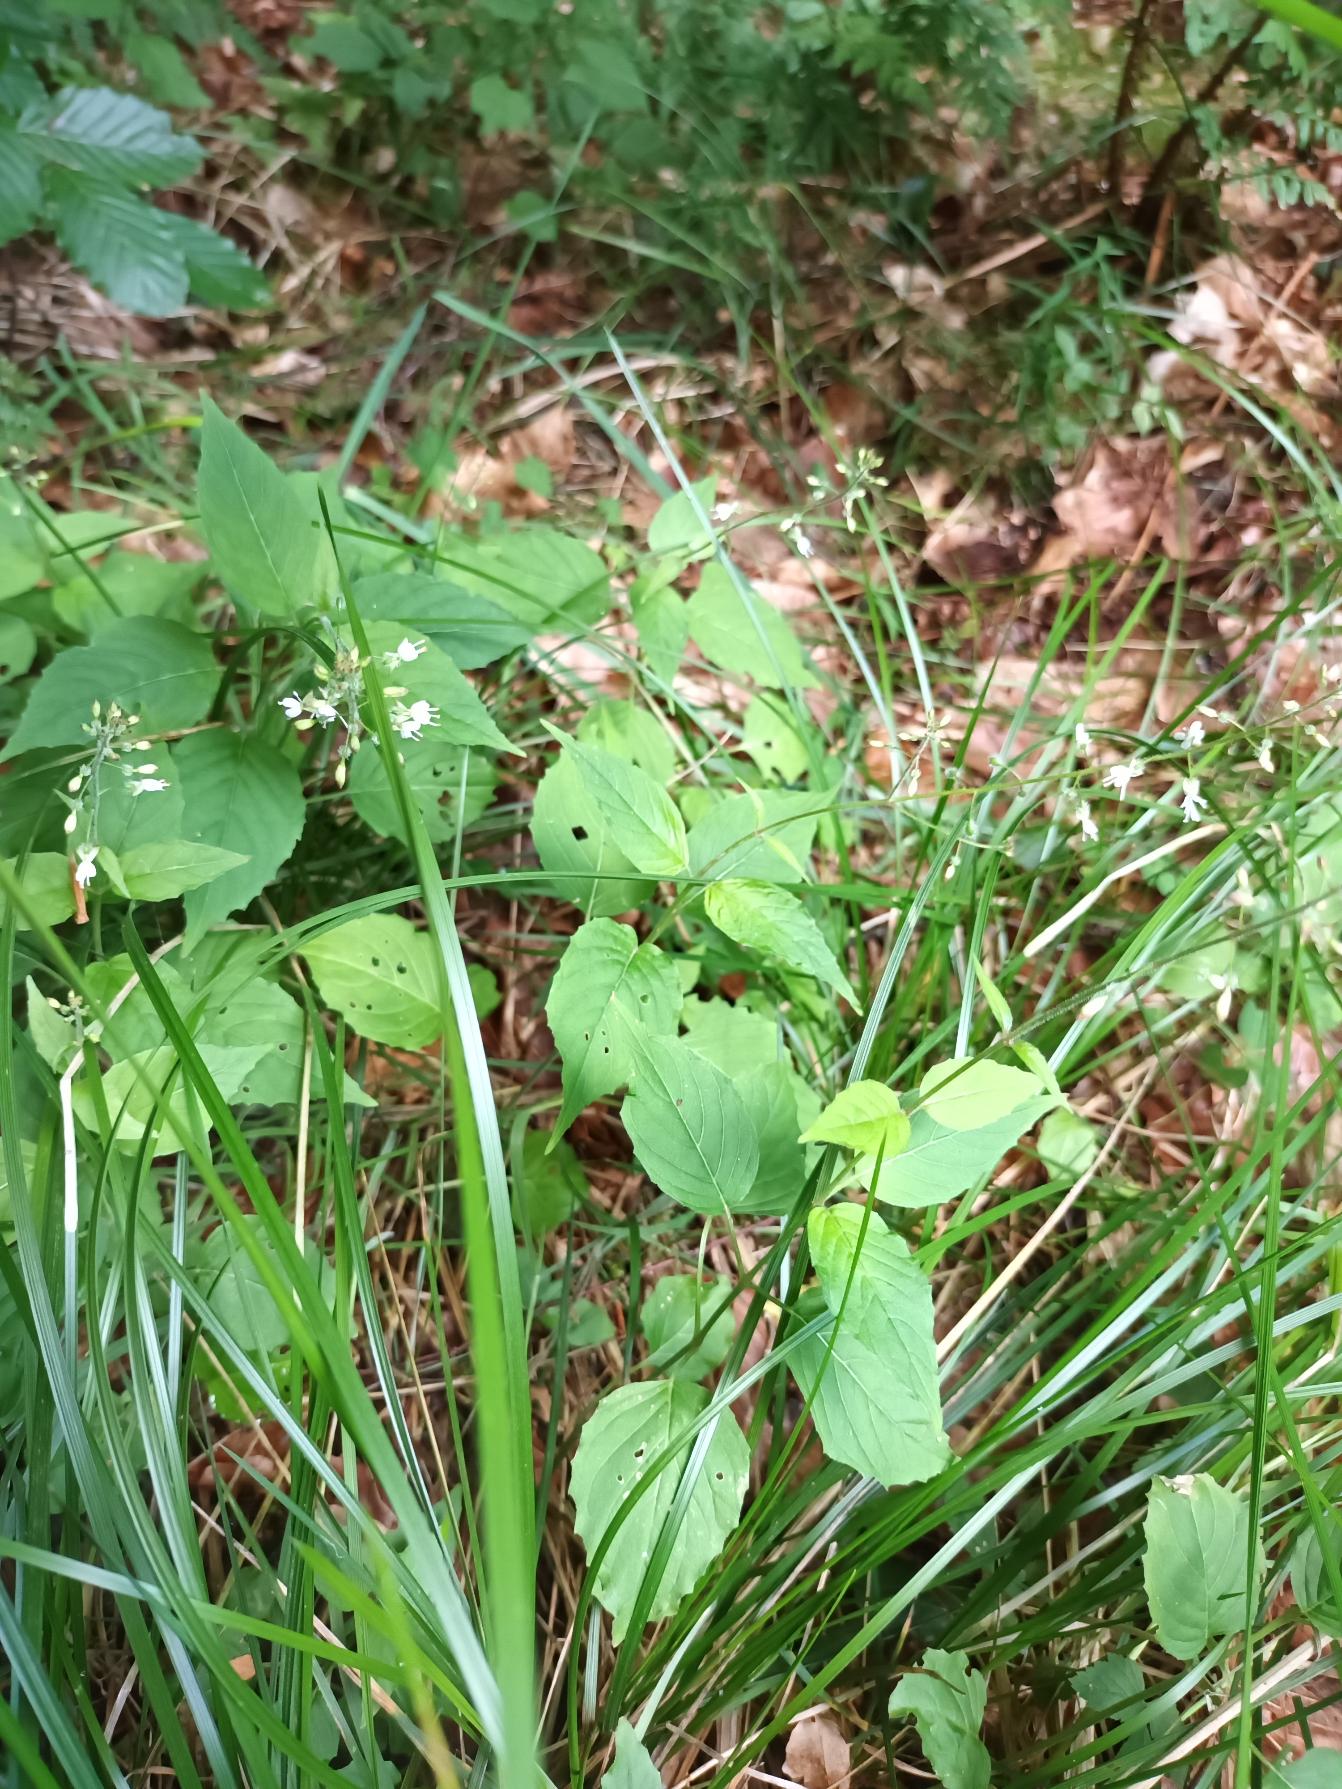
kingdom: Plantae
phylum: Tracheophyta
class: Magnoliopsida
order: Myrtales
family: Onagraceae
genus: Circaea
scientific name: Circaea lutetiana
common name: Dunet steffensurt
